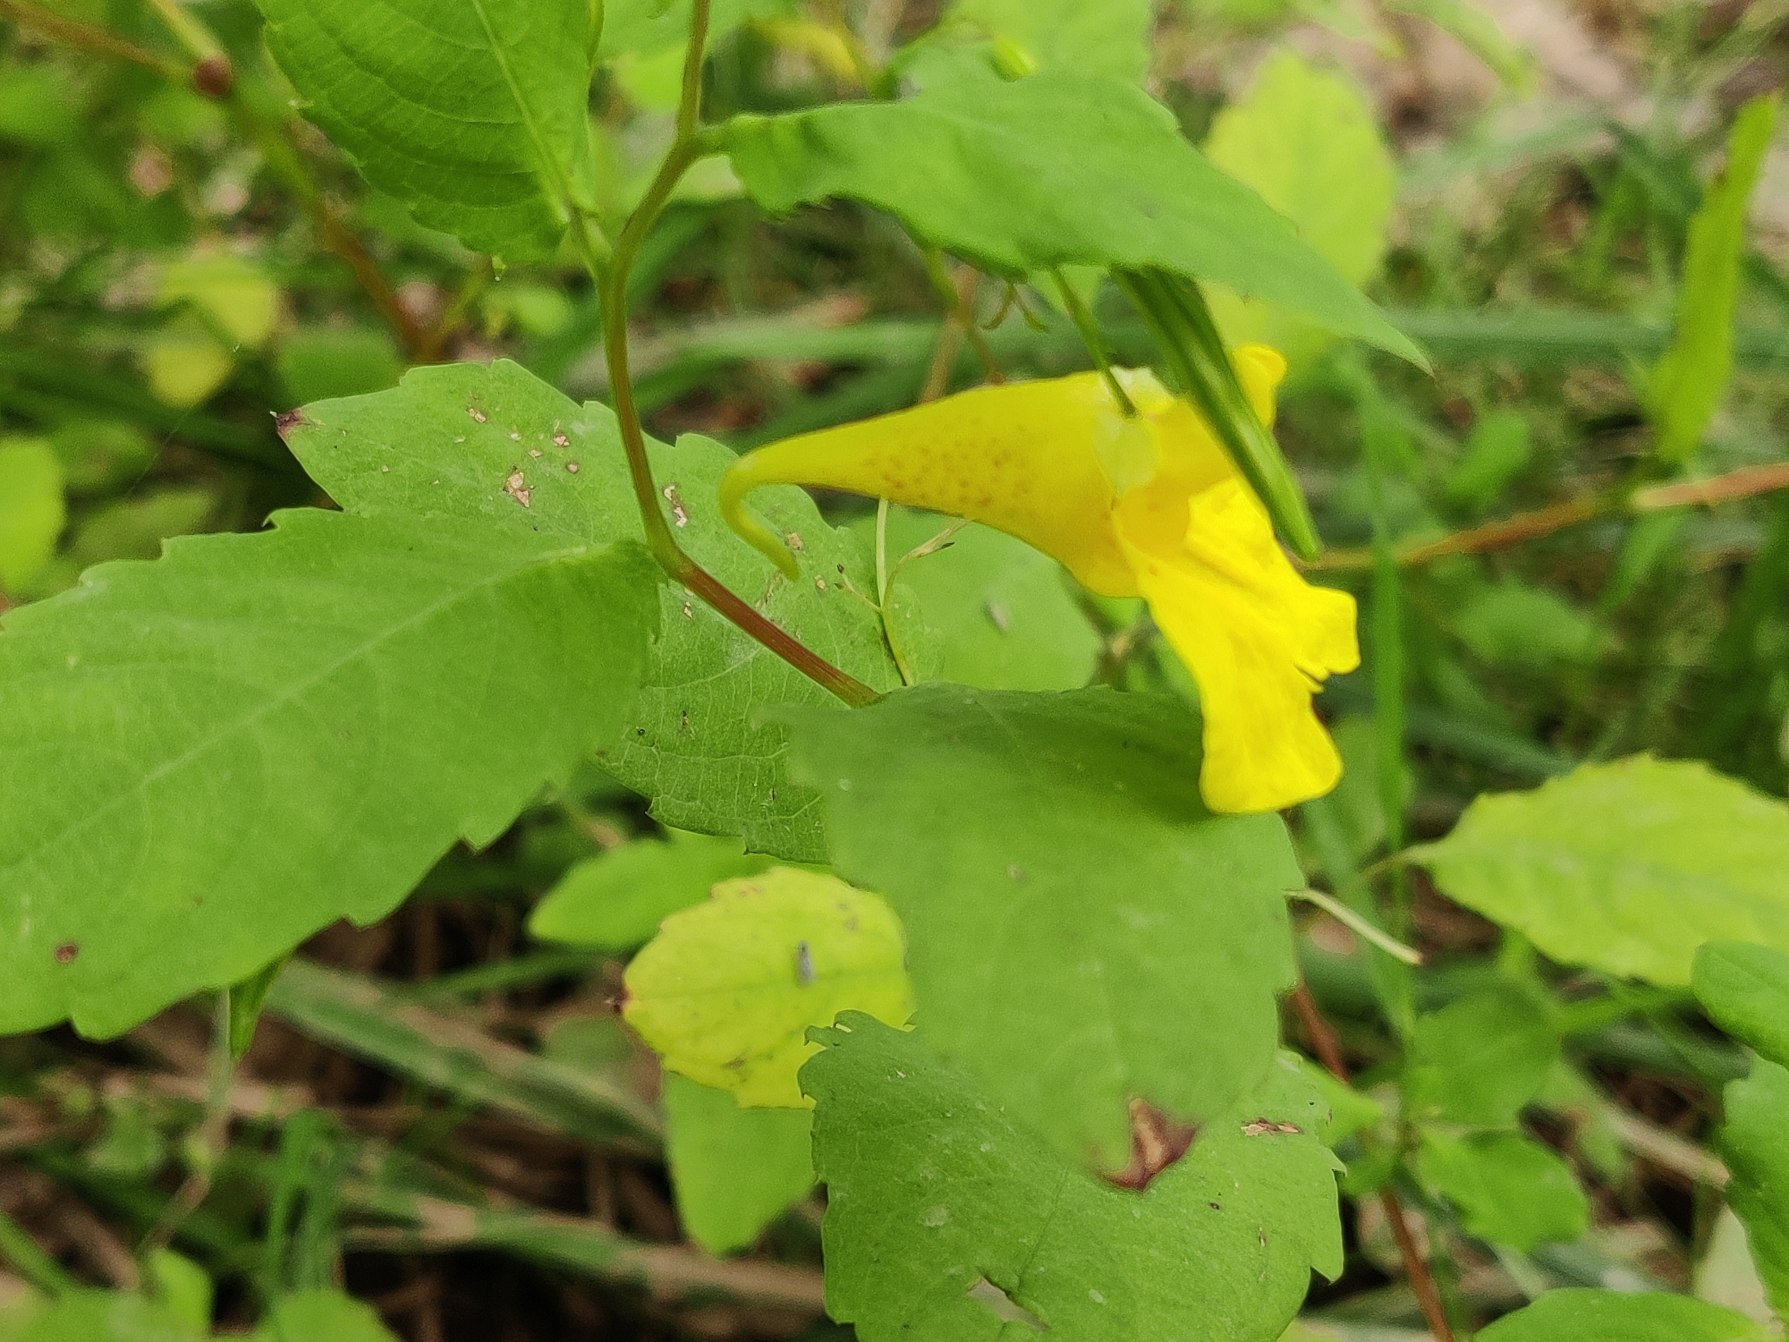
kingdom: Plantae
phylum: Tracheophyta
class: Magnoliopsida
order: Ericales
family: Balsaminaceae
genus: Impatiens
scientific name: Impatiens noli-tangere
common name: Spring-balsamin
